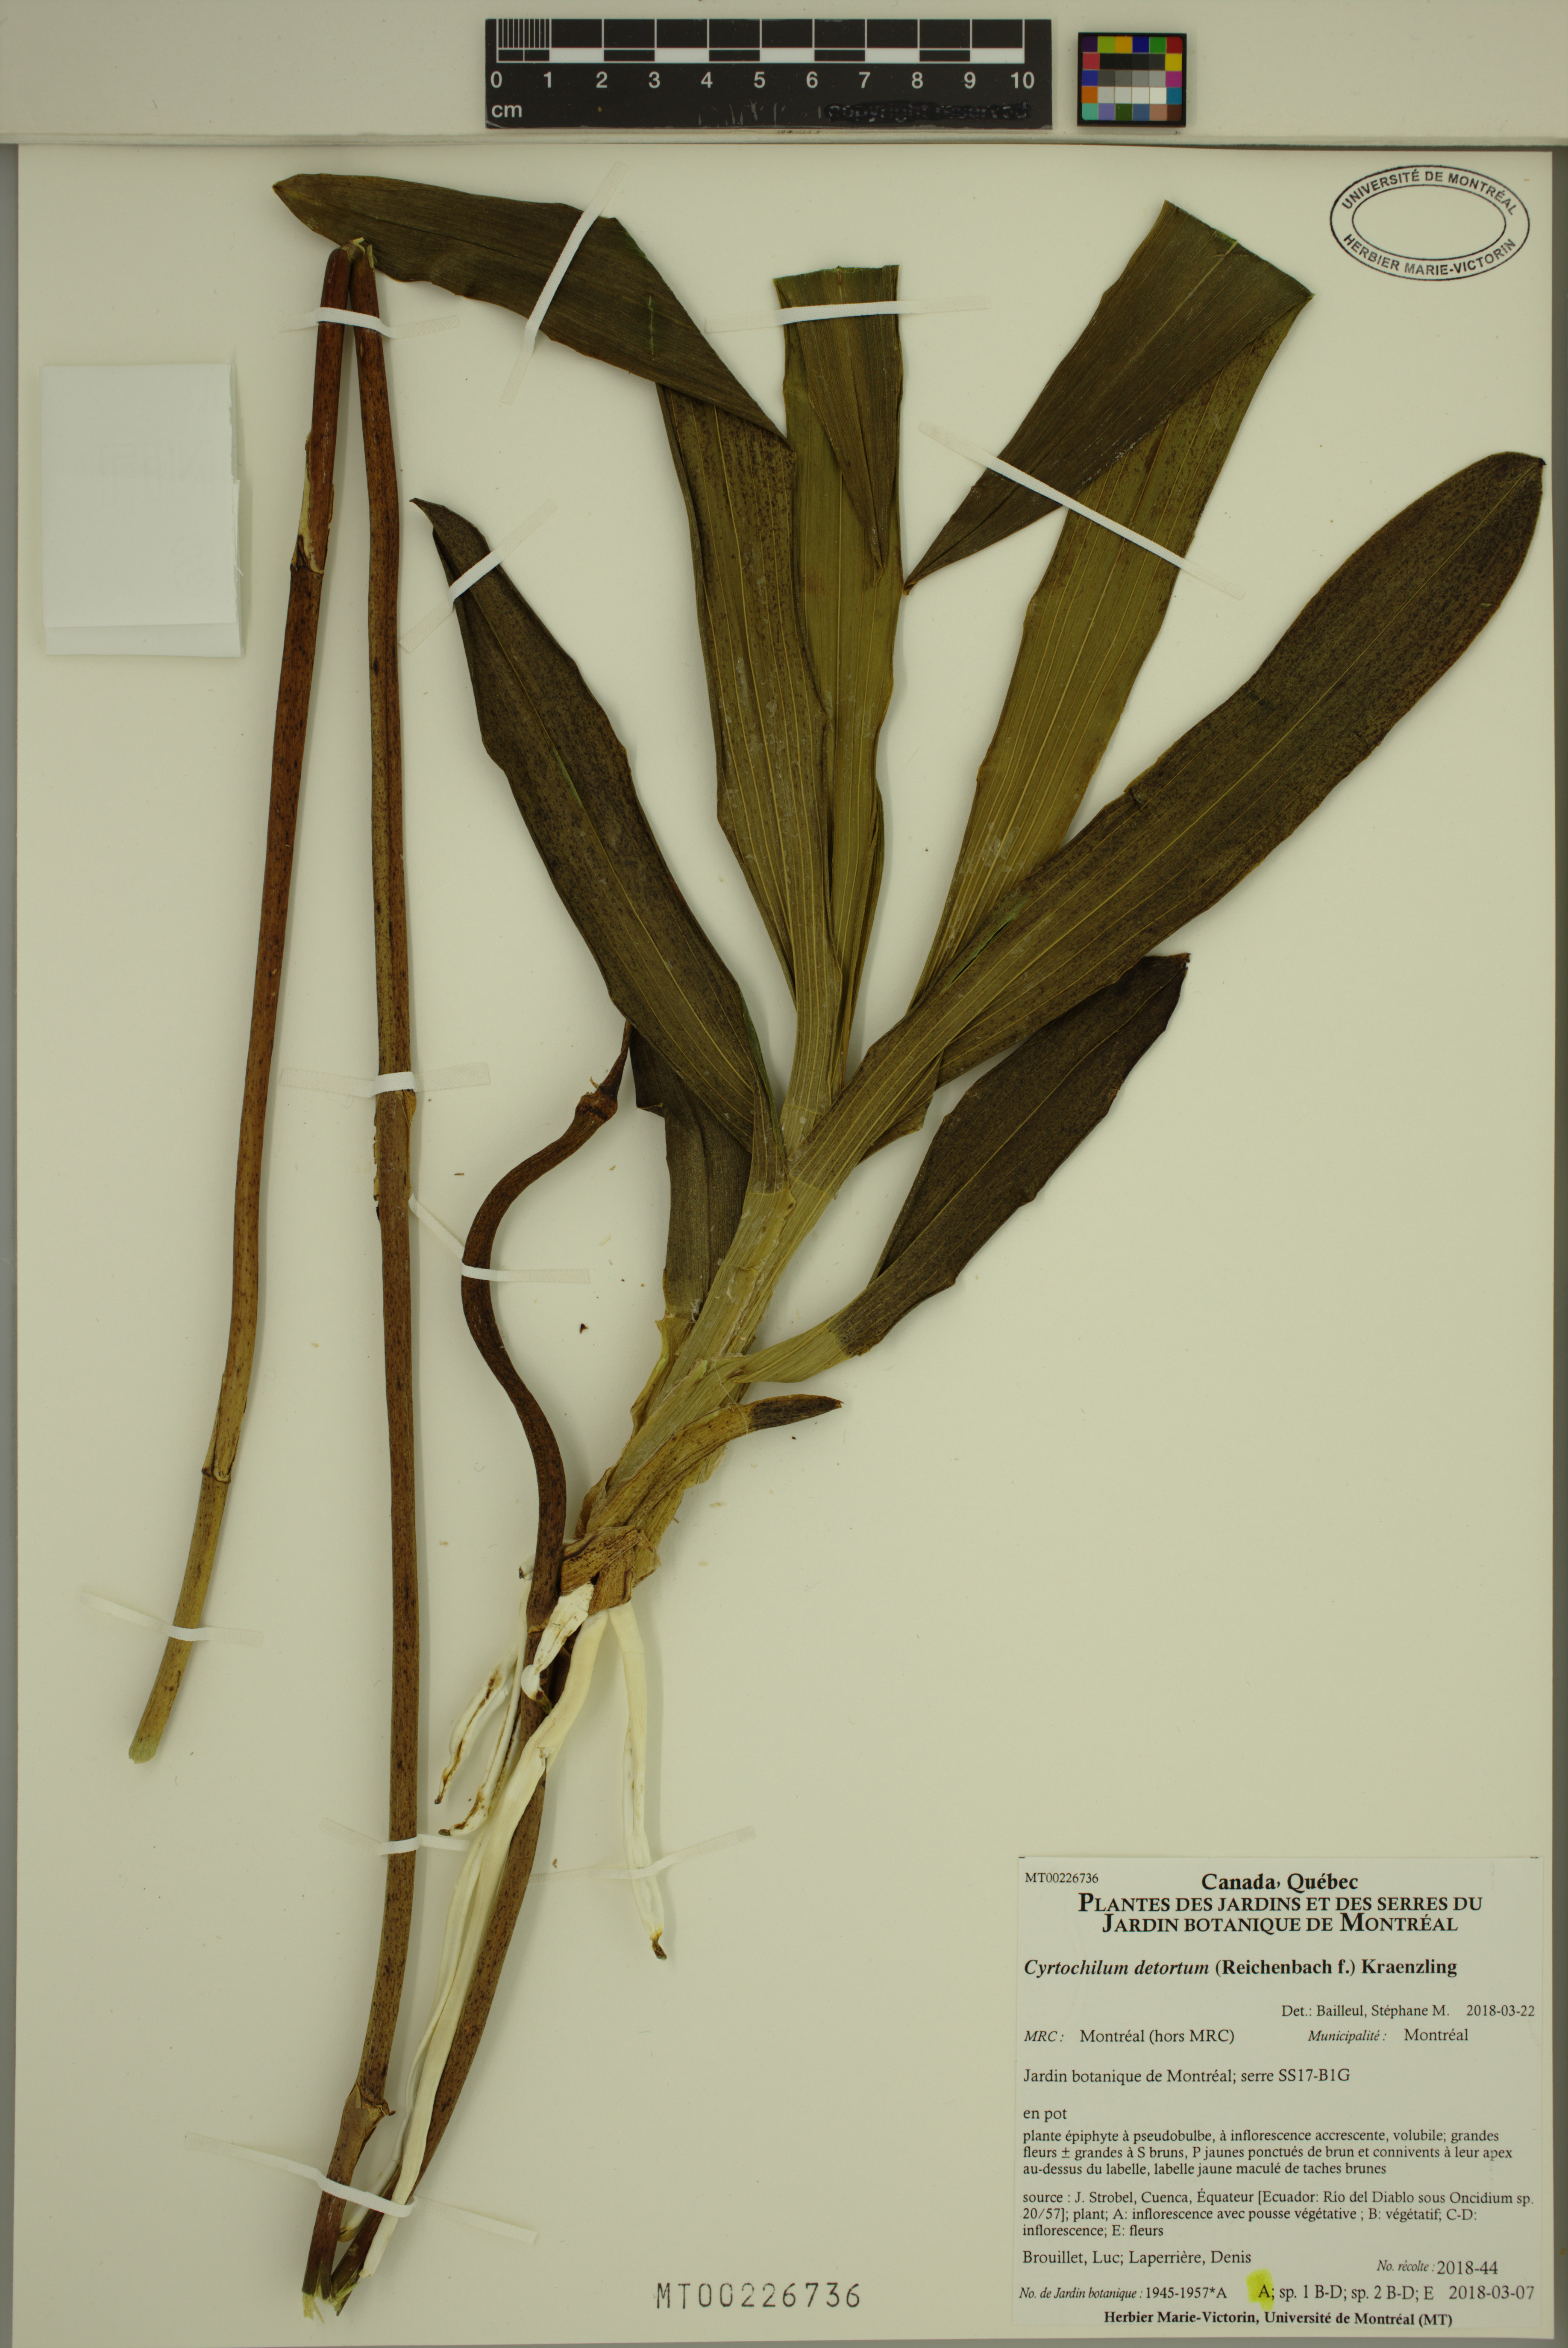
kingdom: Plantae
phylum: Tracheophyta
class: Liliopsida
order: Asparagales
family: Orchidaceae
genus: Cyrtochilum
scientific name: Cyrtochilum detortum
